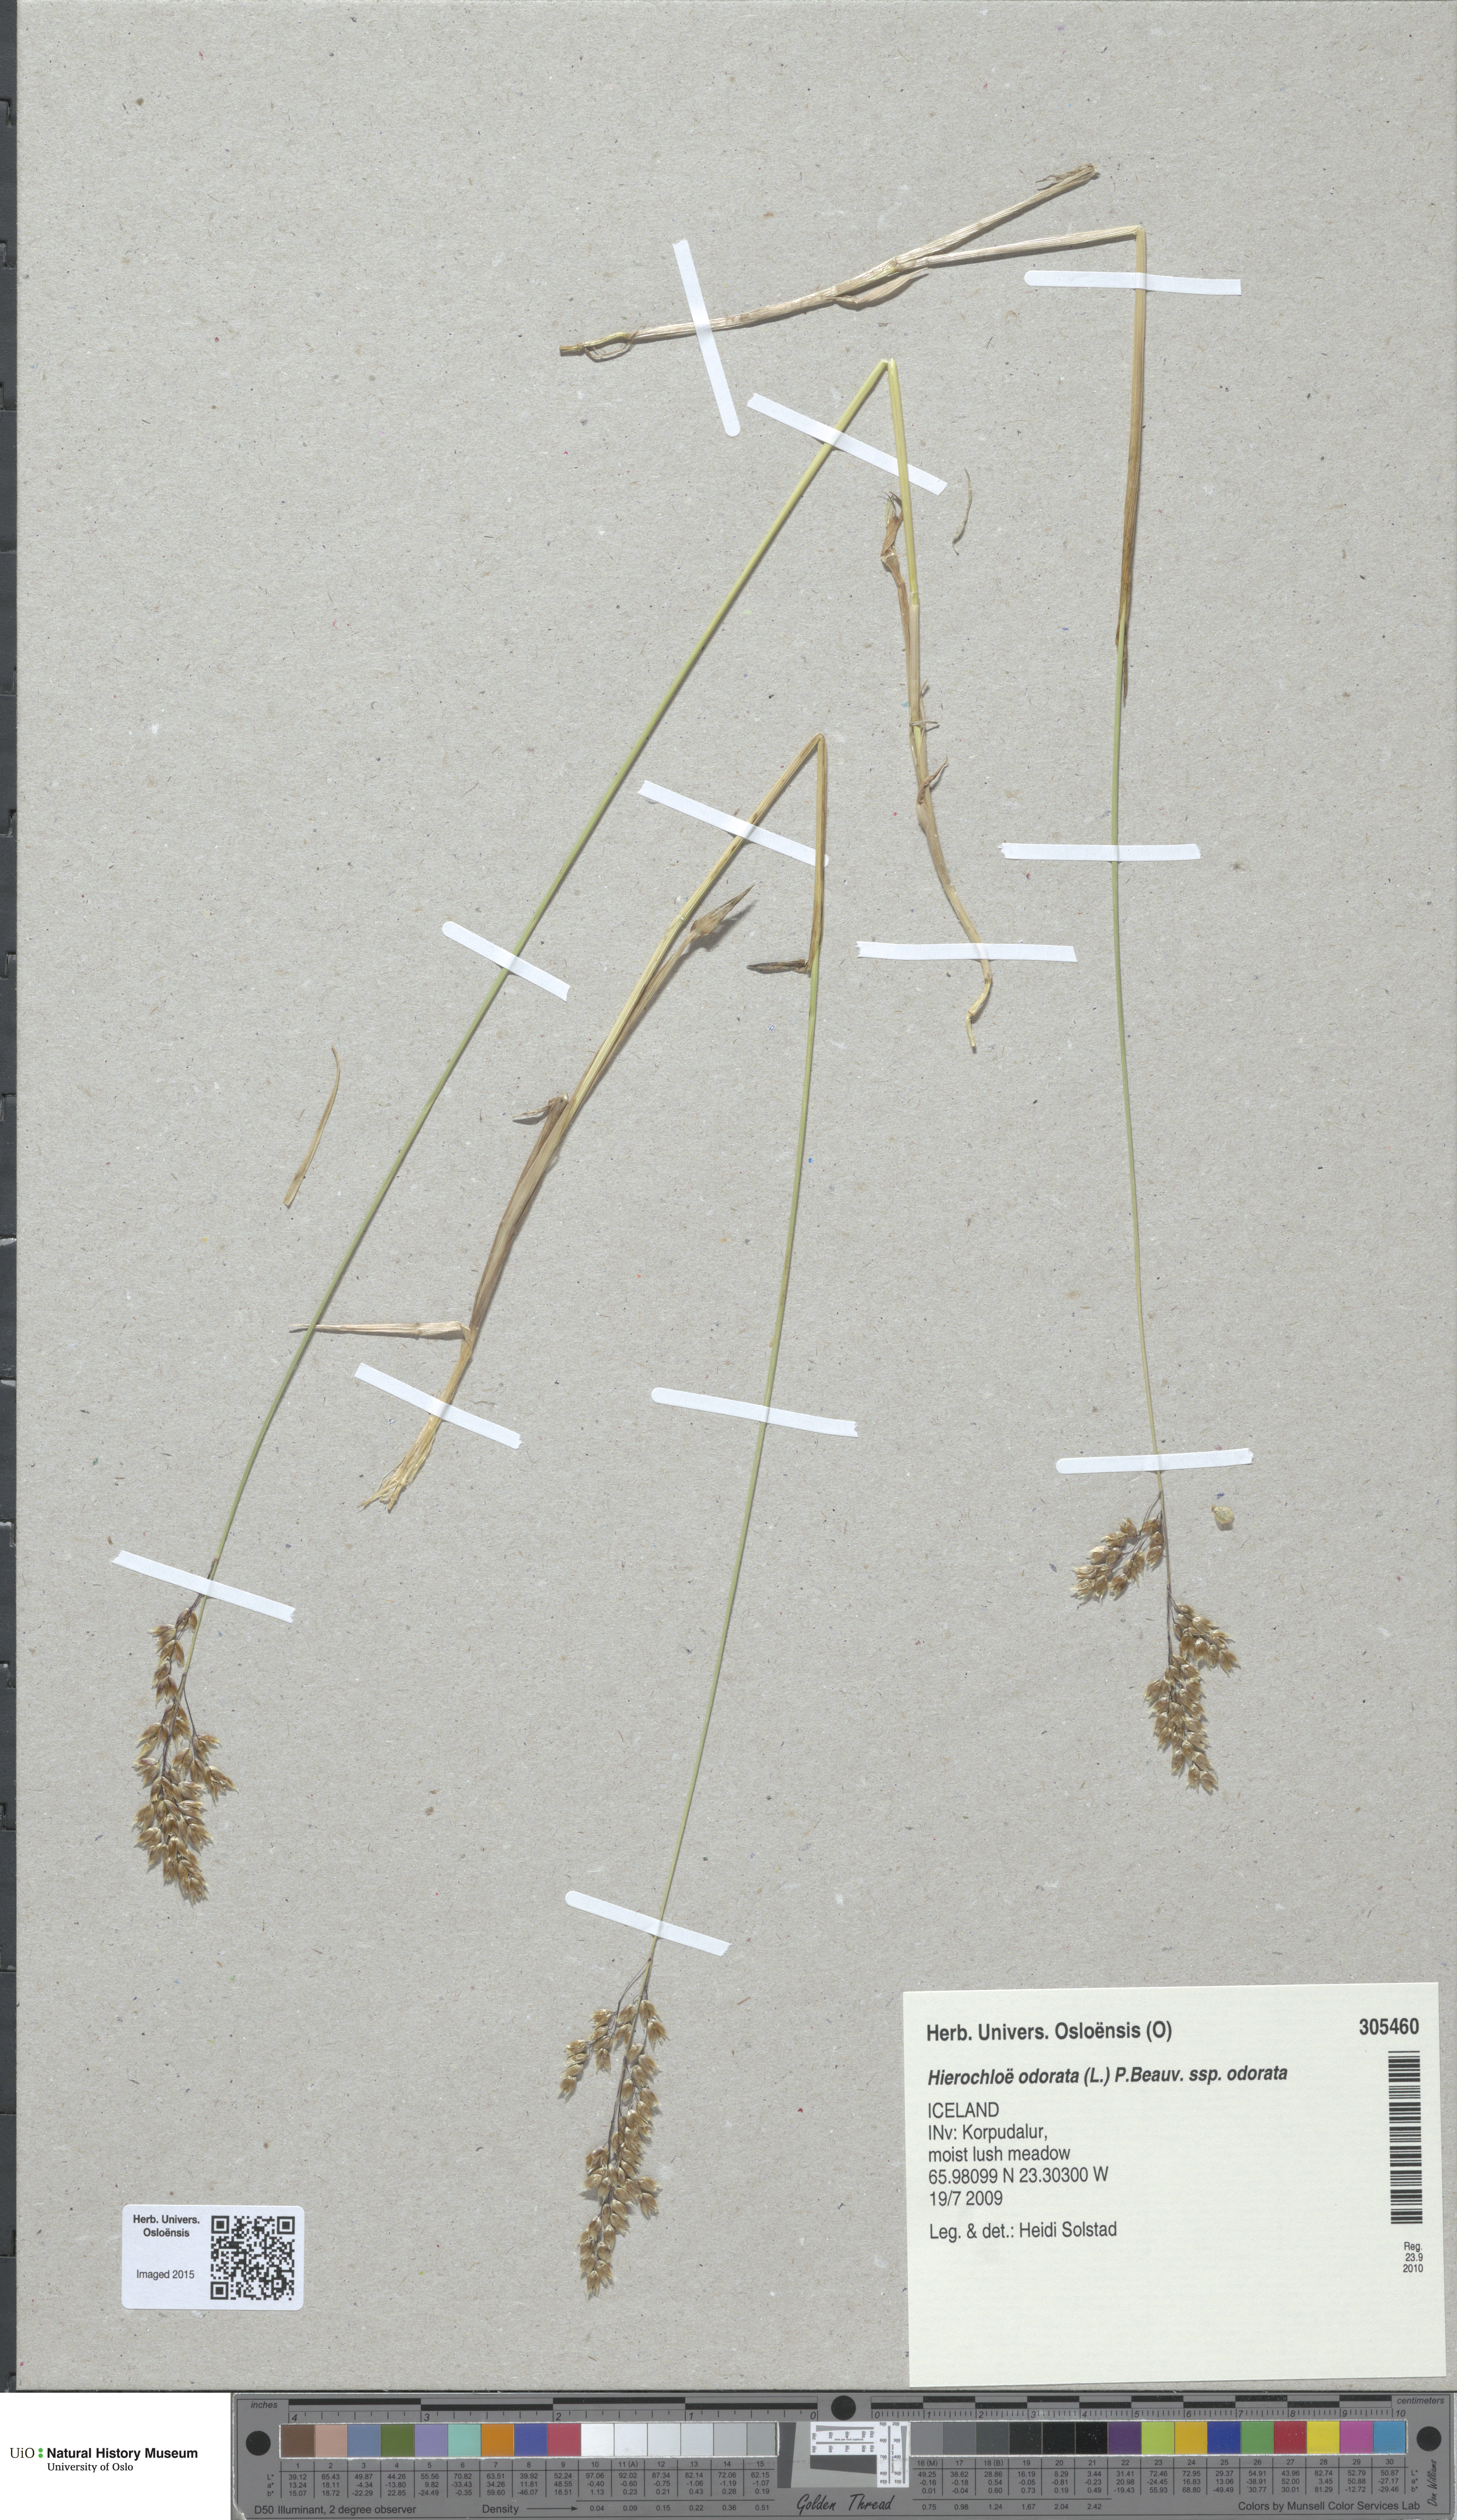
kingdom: Plantae
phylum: Tracheophyta
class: Liliopsida
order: Poales
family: Poaceae
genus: Anthoxanthum
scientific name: Anthoxanthum nitens
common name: Holy grass
